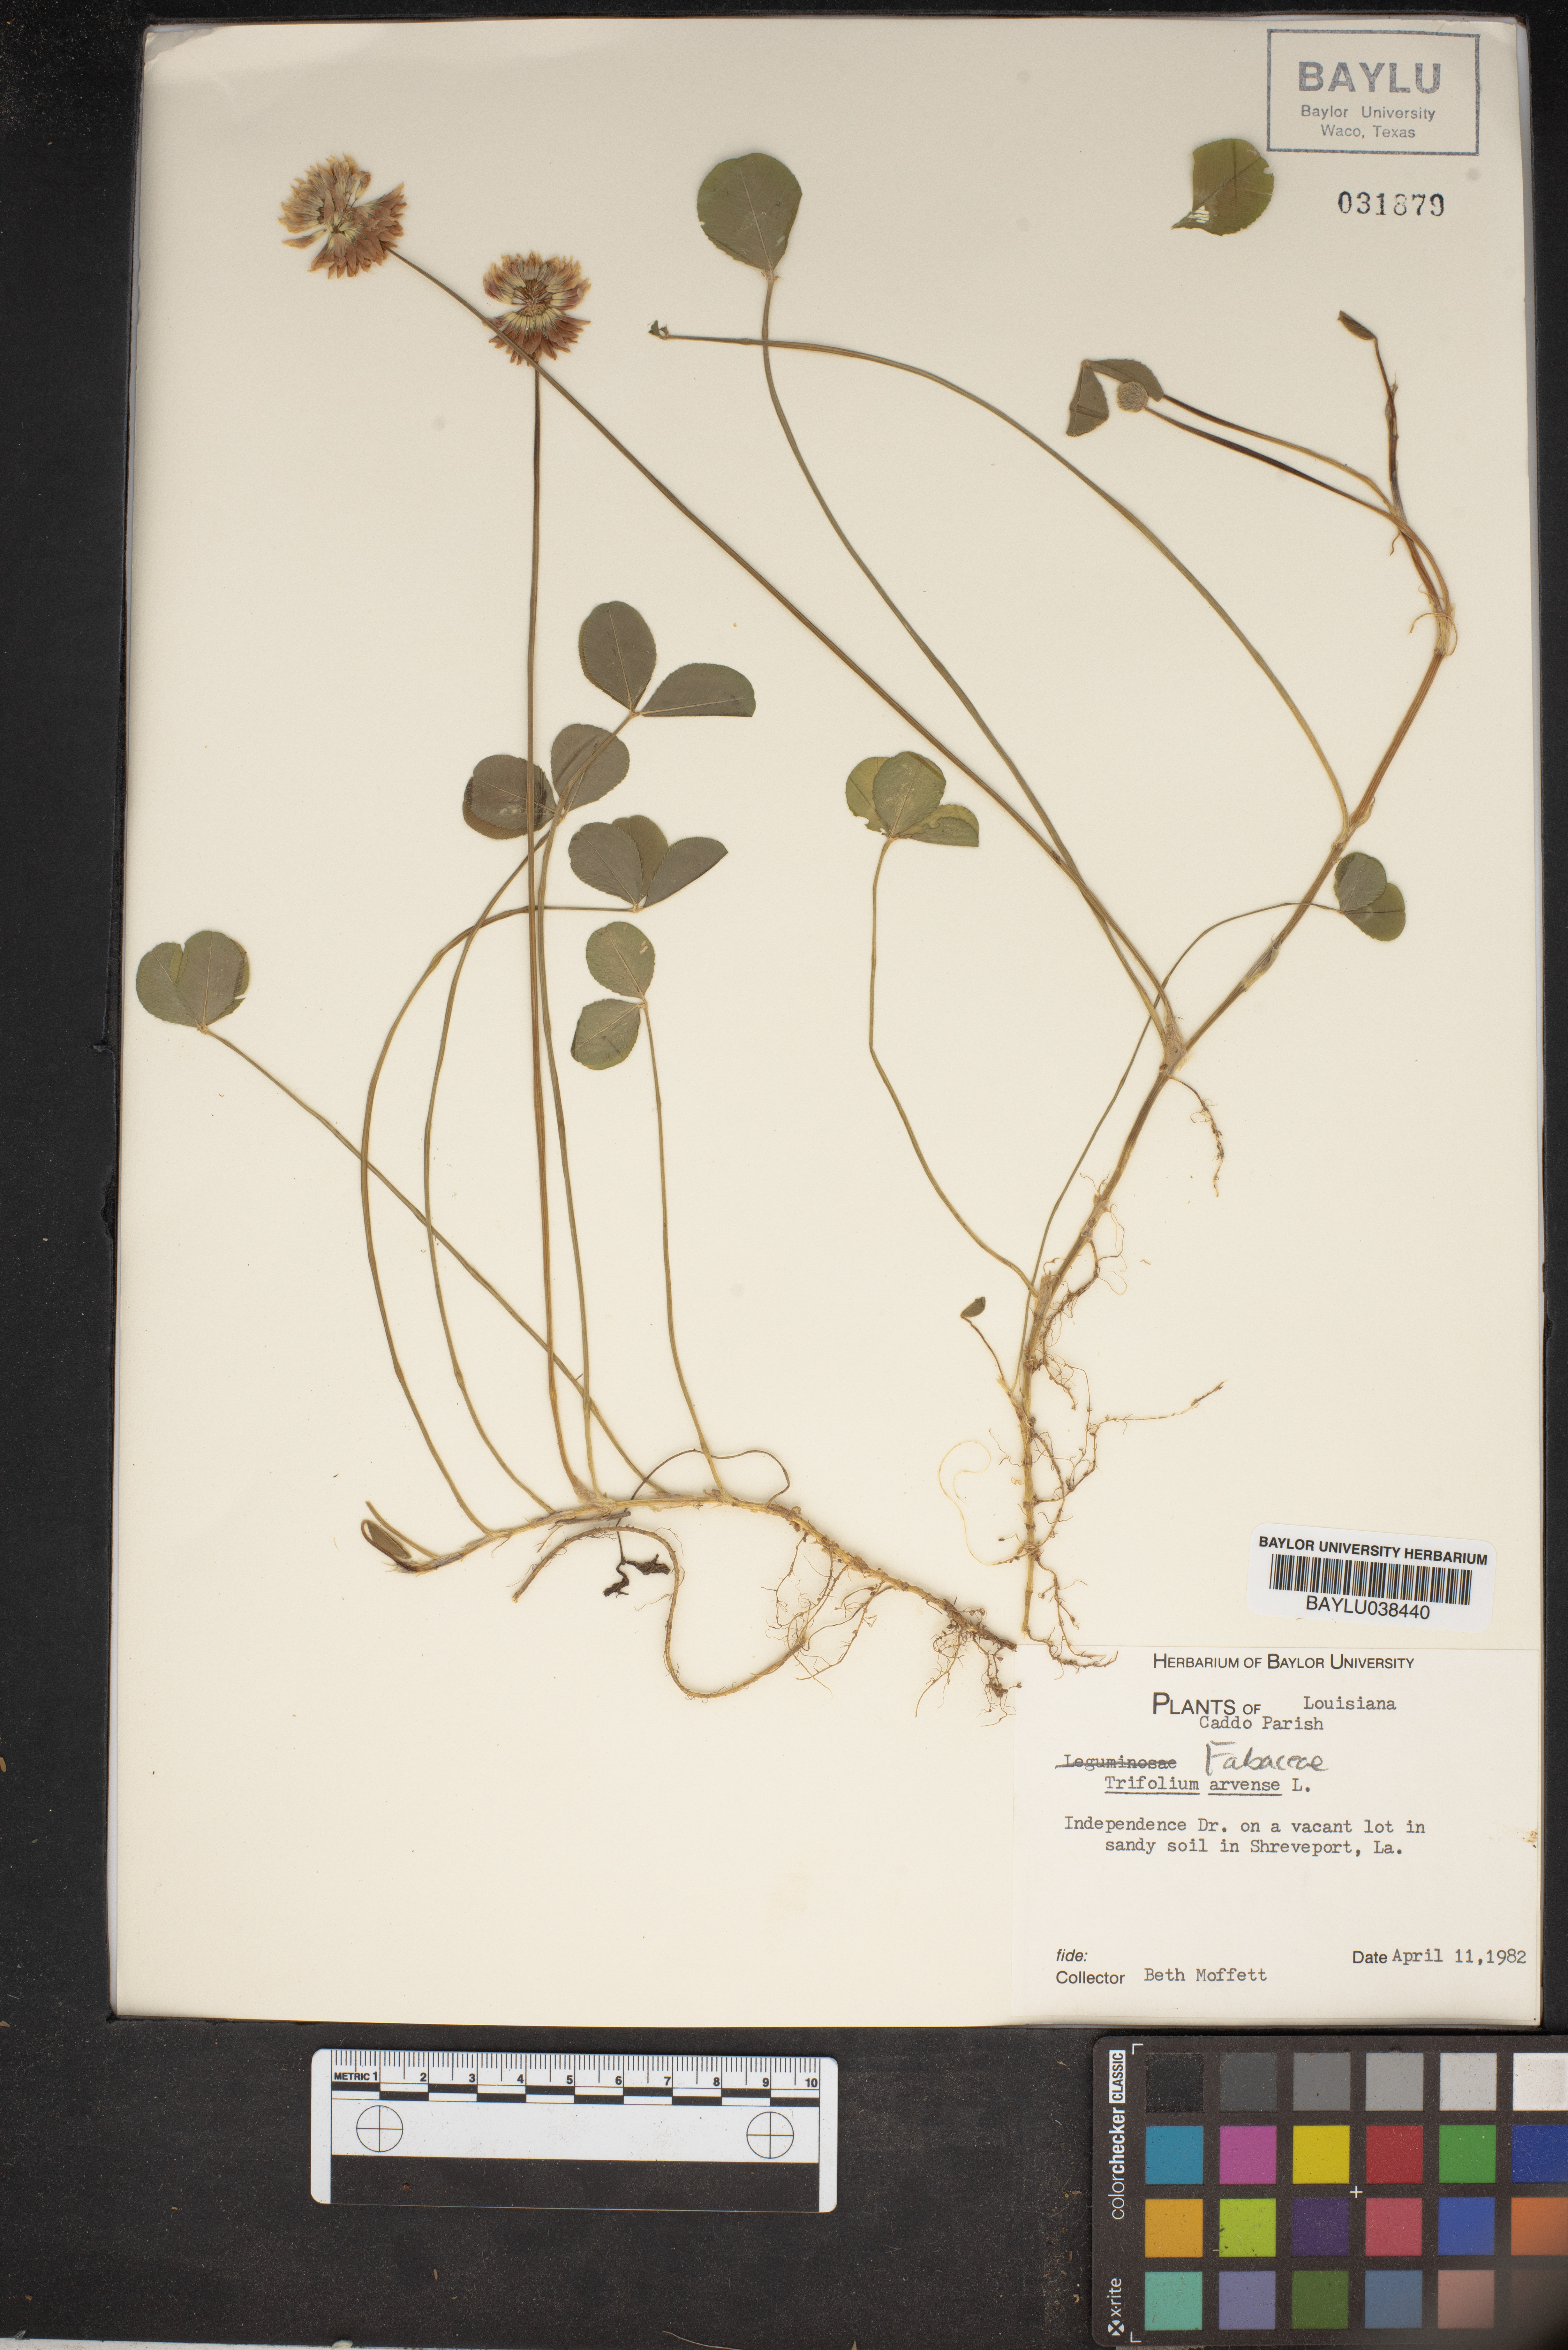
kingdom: Plantae
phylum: Tracheophyta
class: Magnoliopsida
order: Fabales
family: Fabaceae
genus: Trifolium
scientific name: Trifolium arvense
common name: Hare's-foot clover
